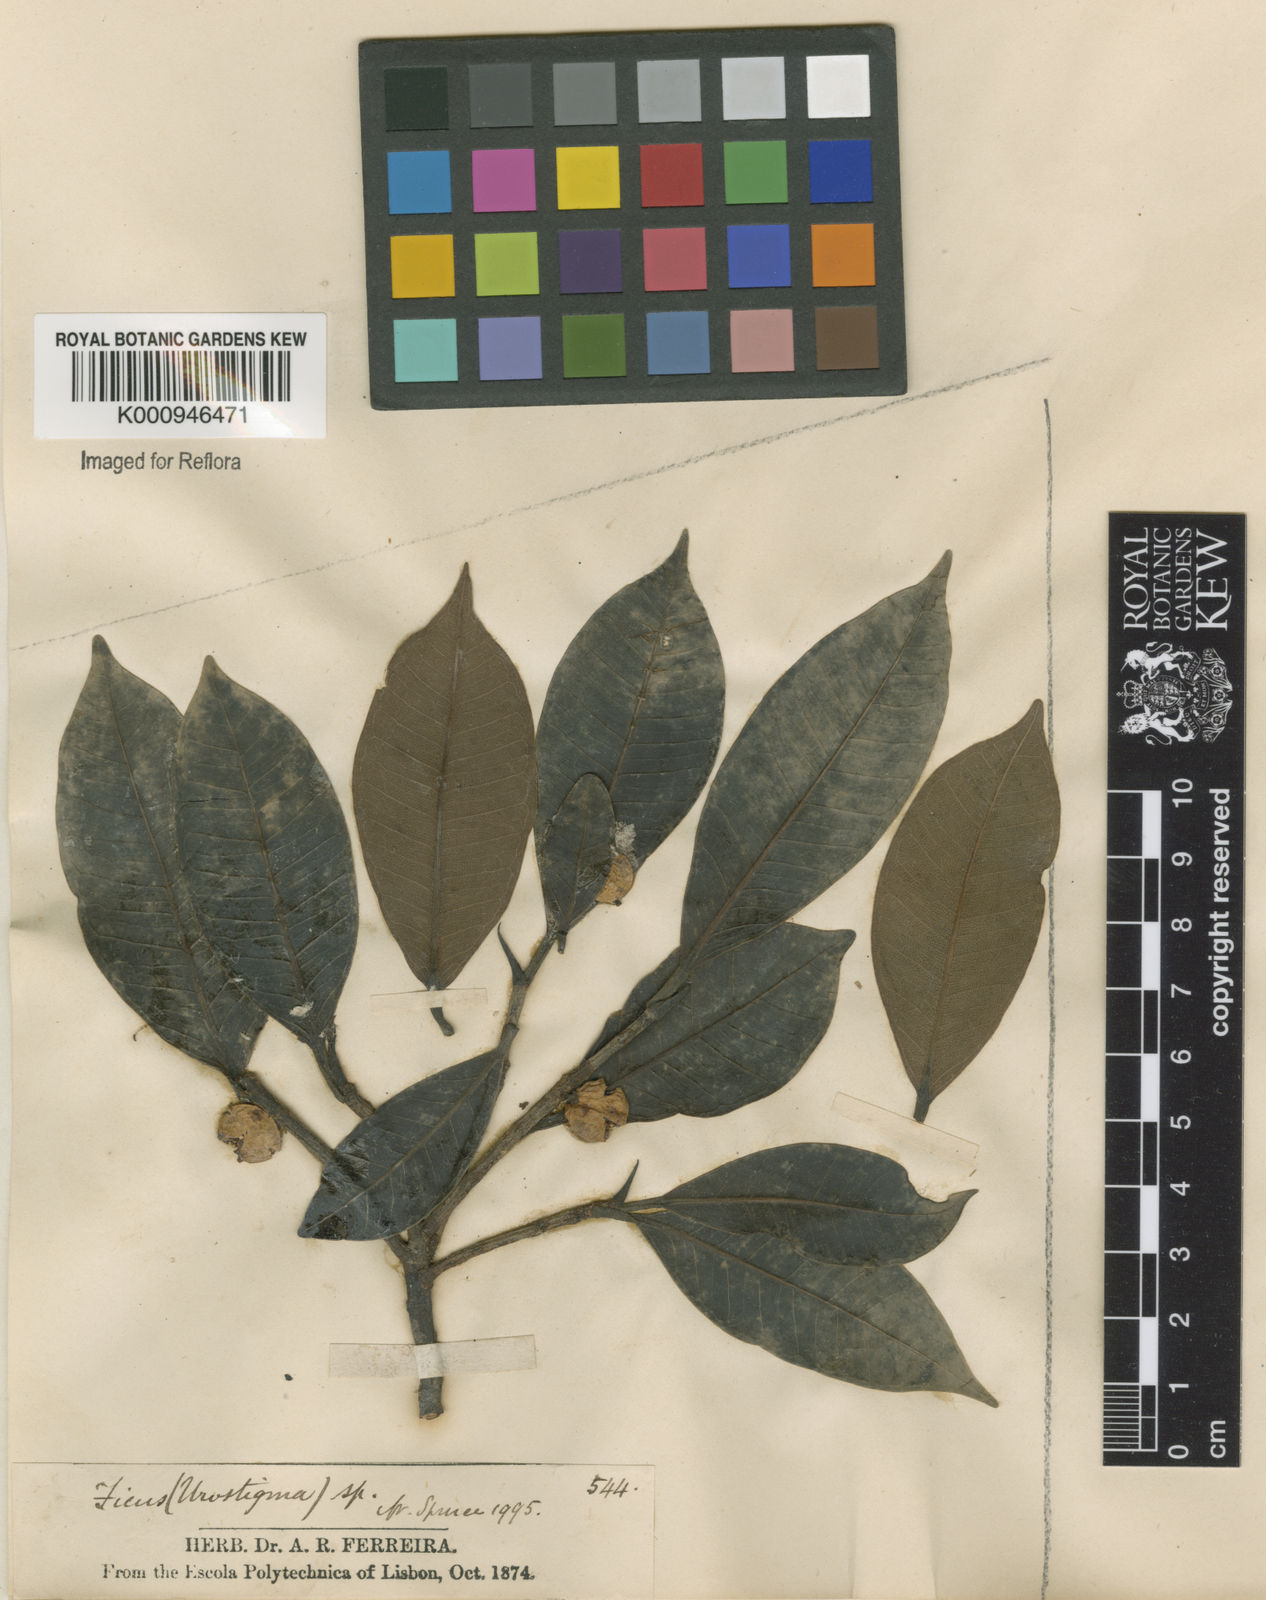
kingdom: Plantae
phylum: Tracheophyta
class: Magnoliopsida
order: Rosales
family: Moraceae
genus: Ficus
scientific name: Ficus pertusa
